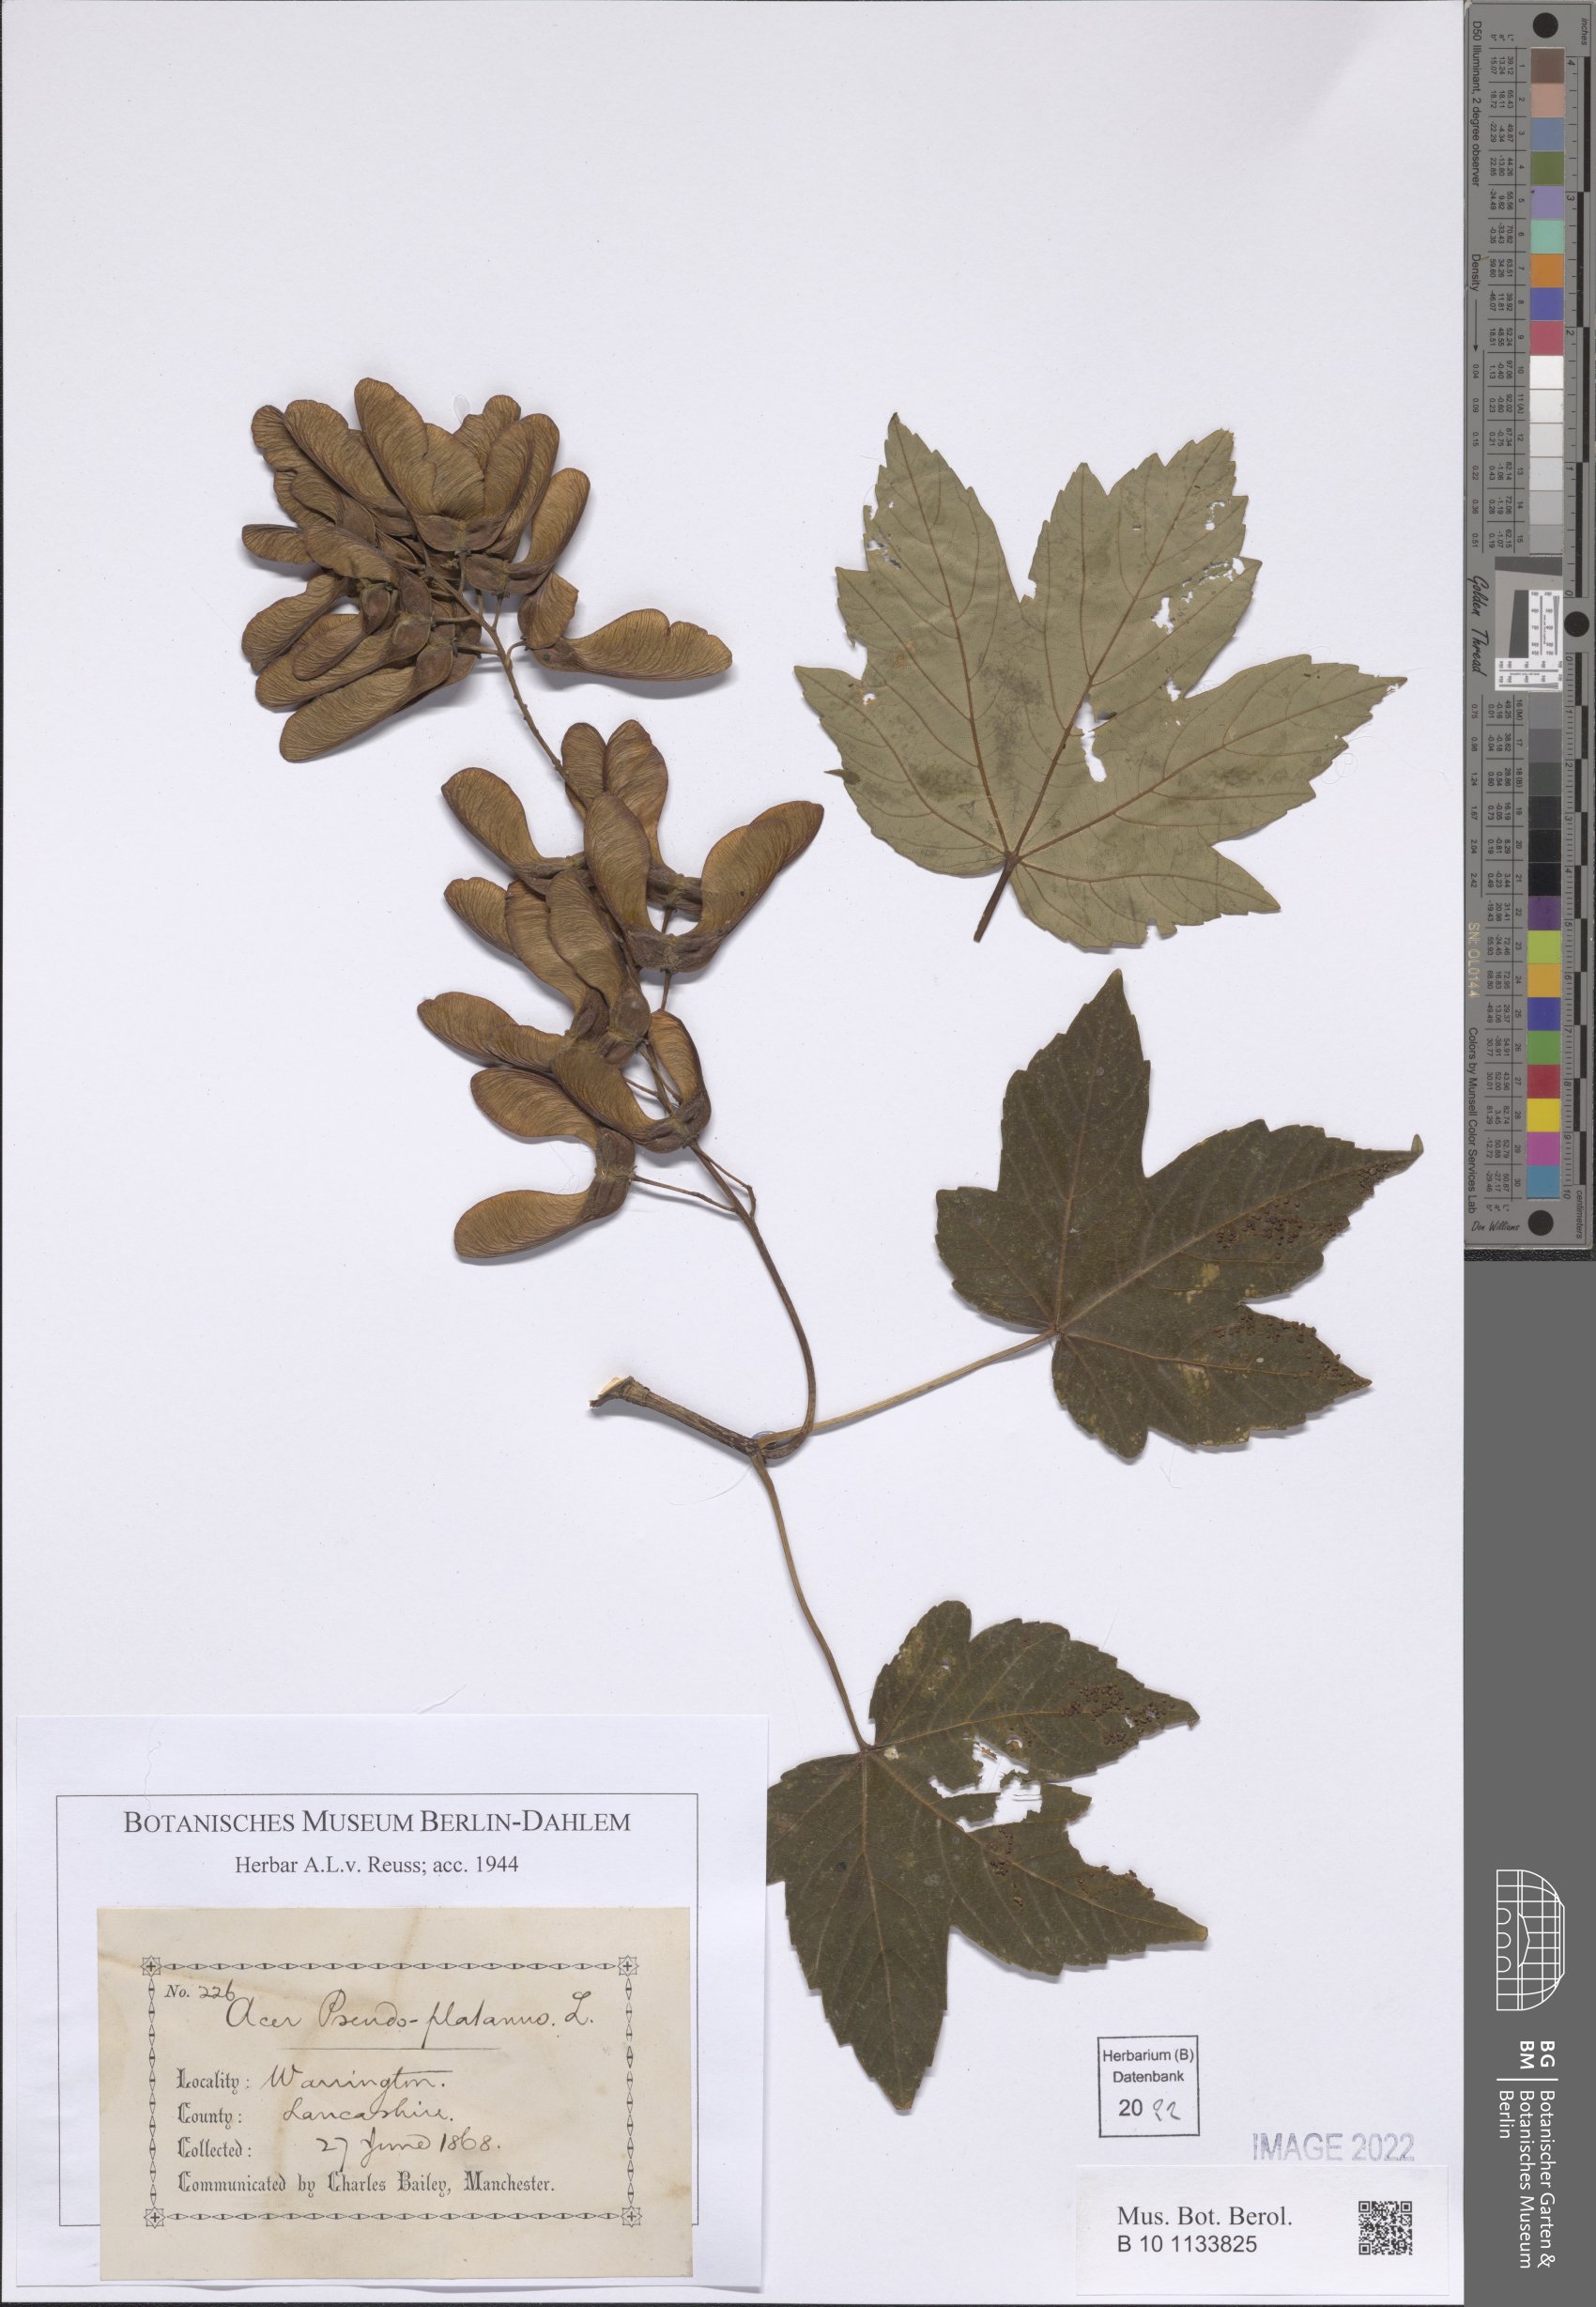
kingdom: Plantae
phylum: Tracheophyta
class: Magnoliopsida
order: Sapindales
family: Sapindaceae
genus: Acer
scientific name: Acer pseudoplatanus
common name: Sycamore
